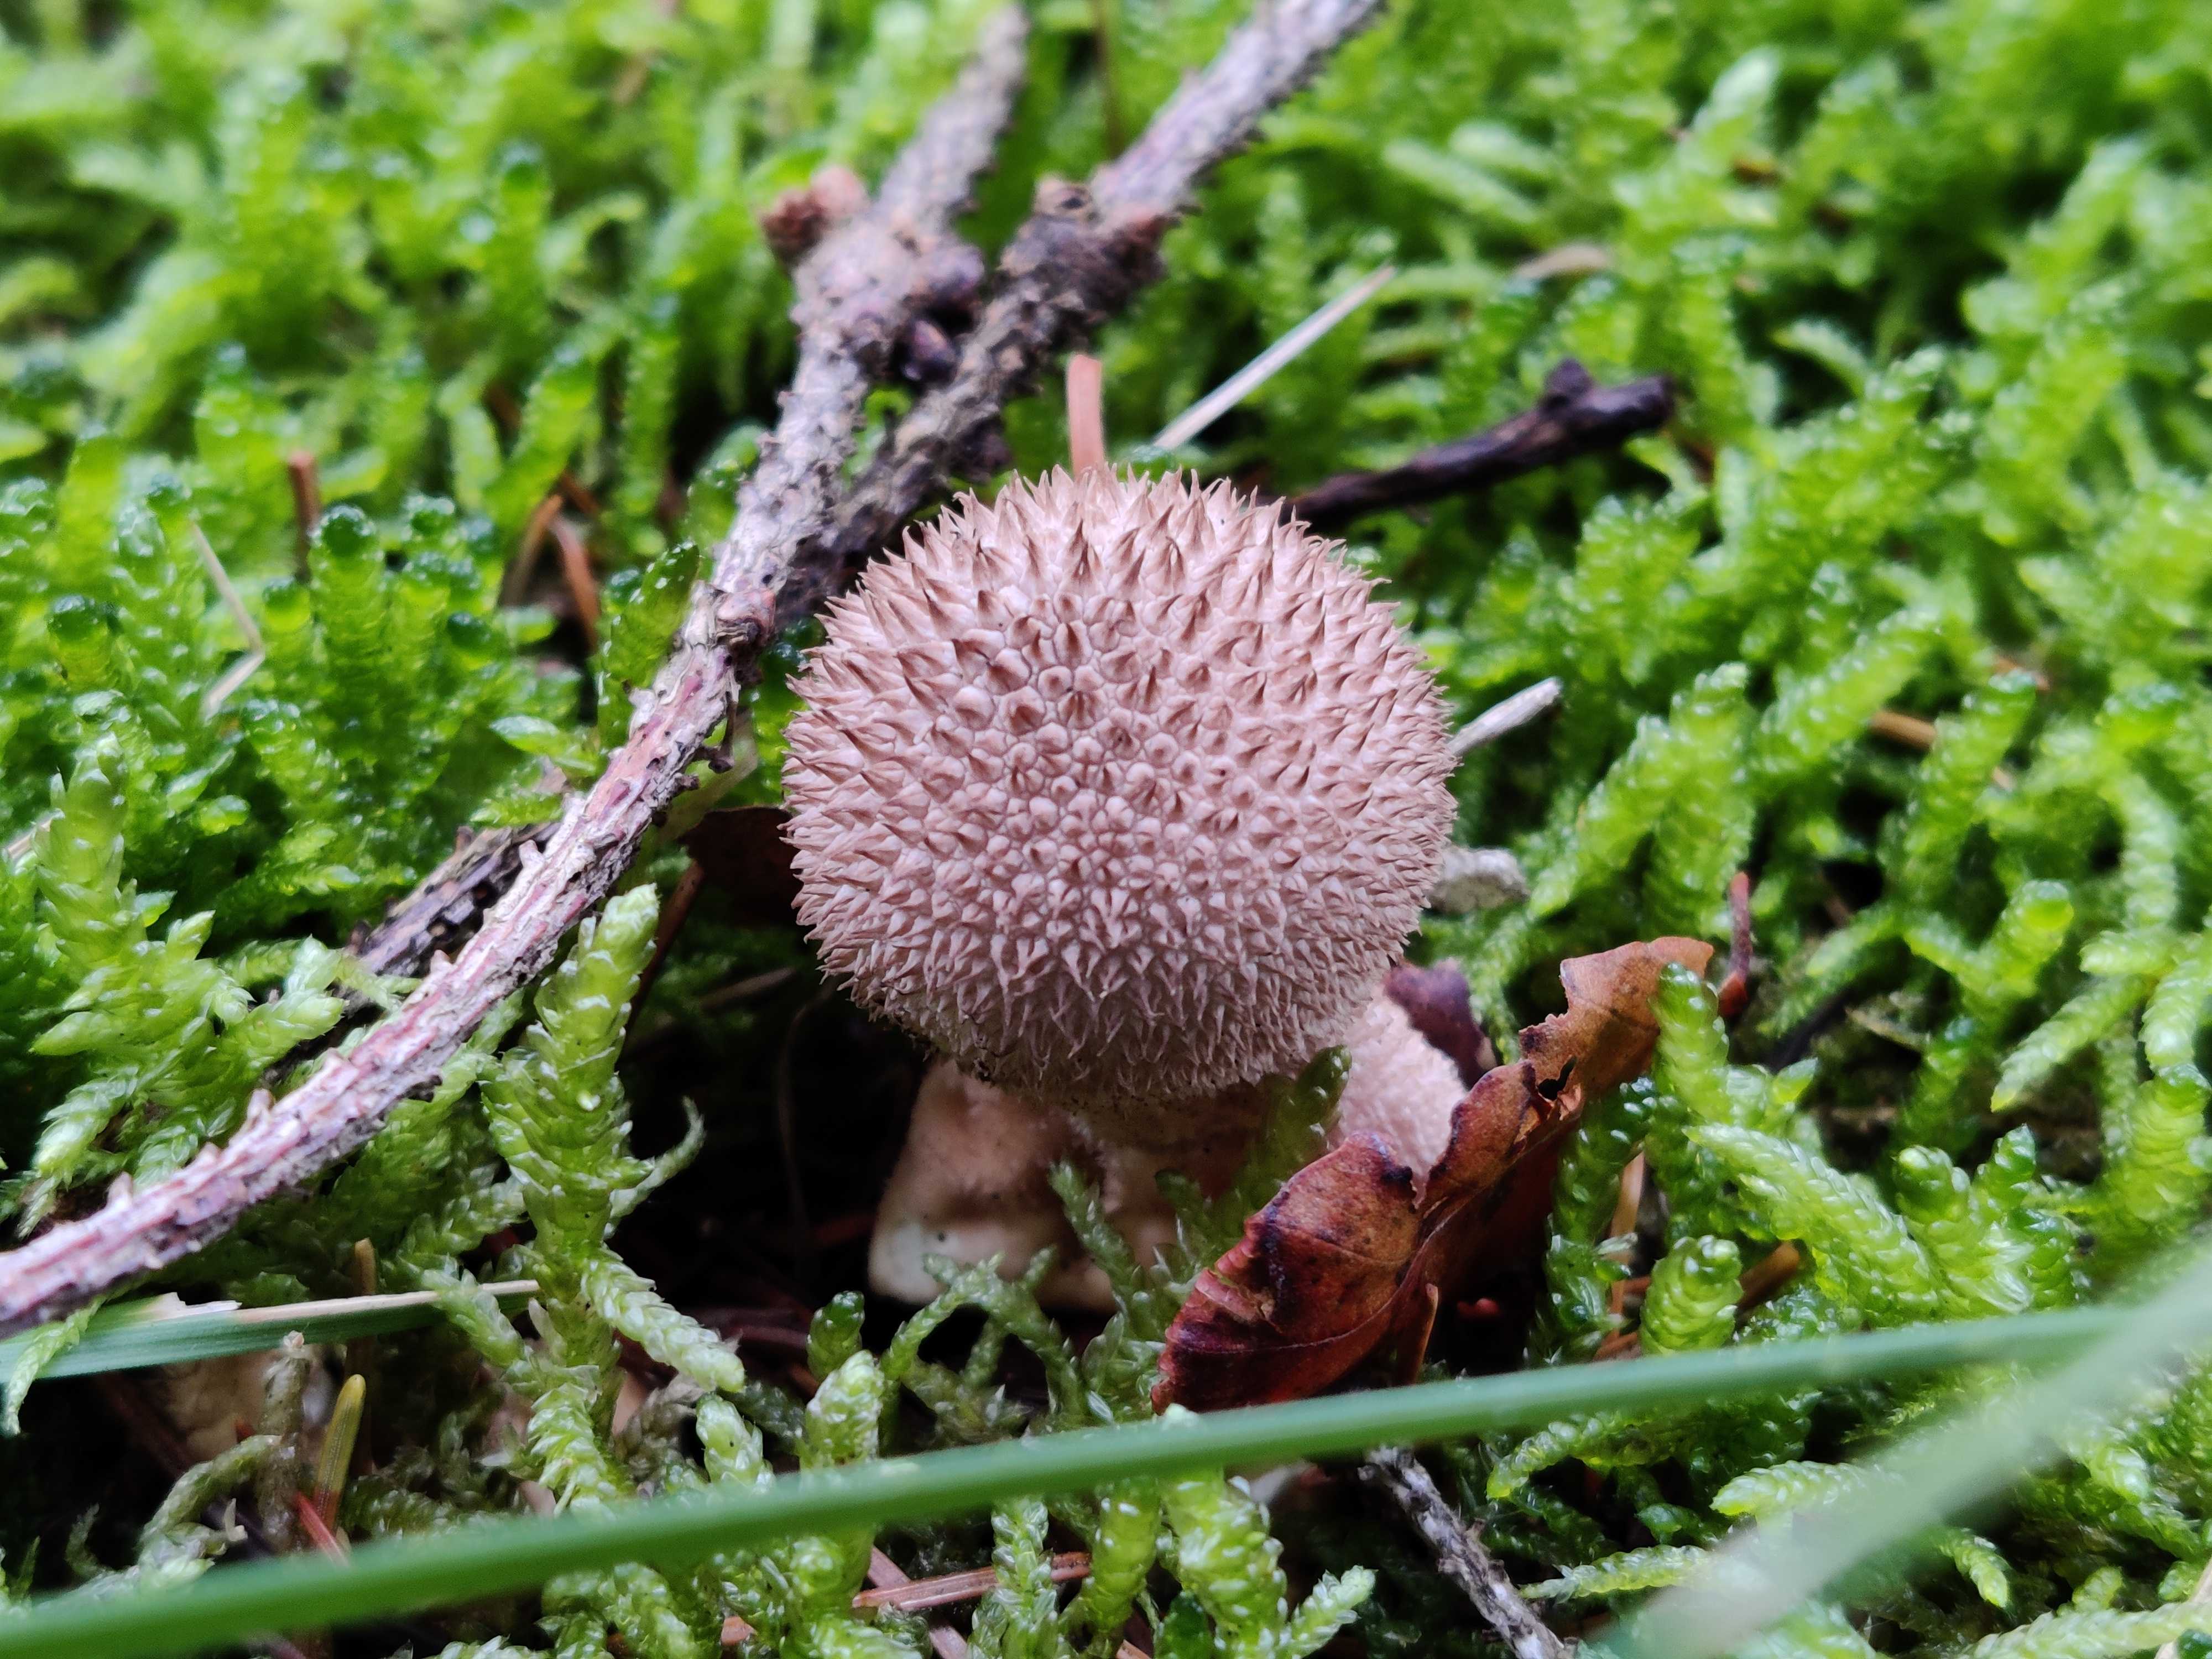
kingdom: Fungi
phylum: Basidiomycota
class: Agaricomycetes
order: Agaricales
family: Lycoperdaceae
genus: Lycoperdon
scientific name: Lycoperdon nigrescens
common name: sortagtig støvbold
